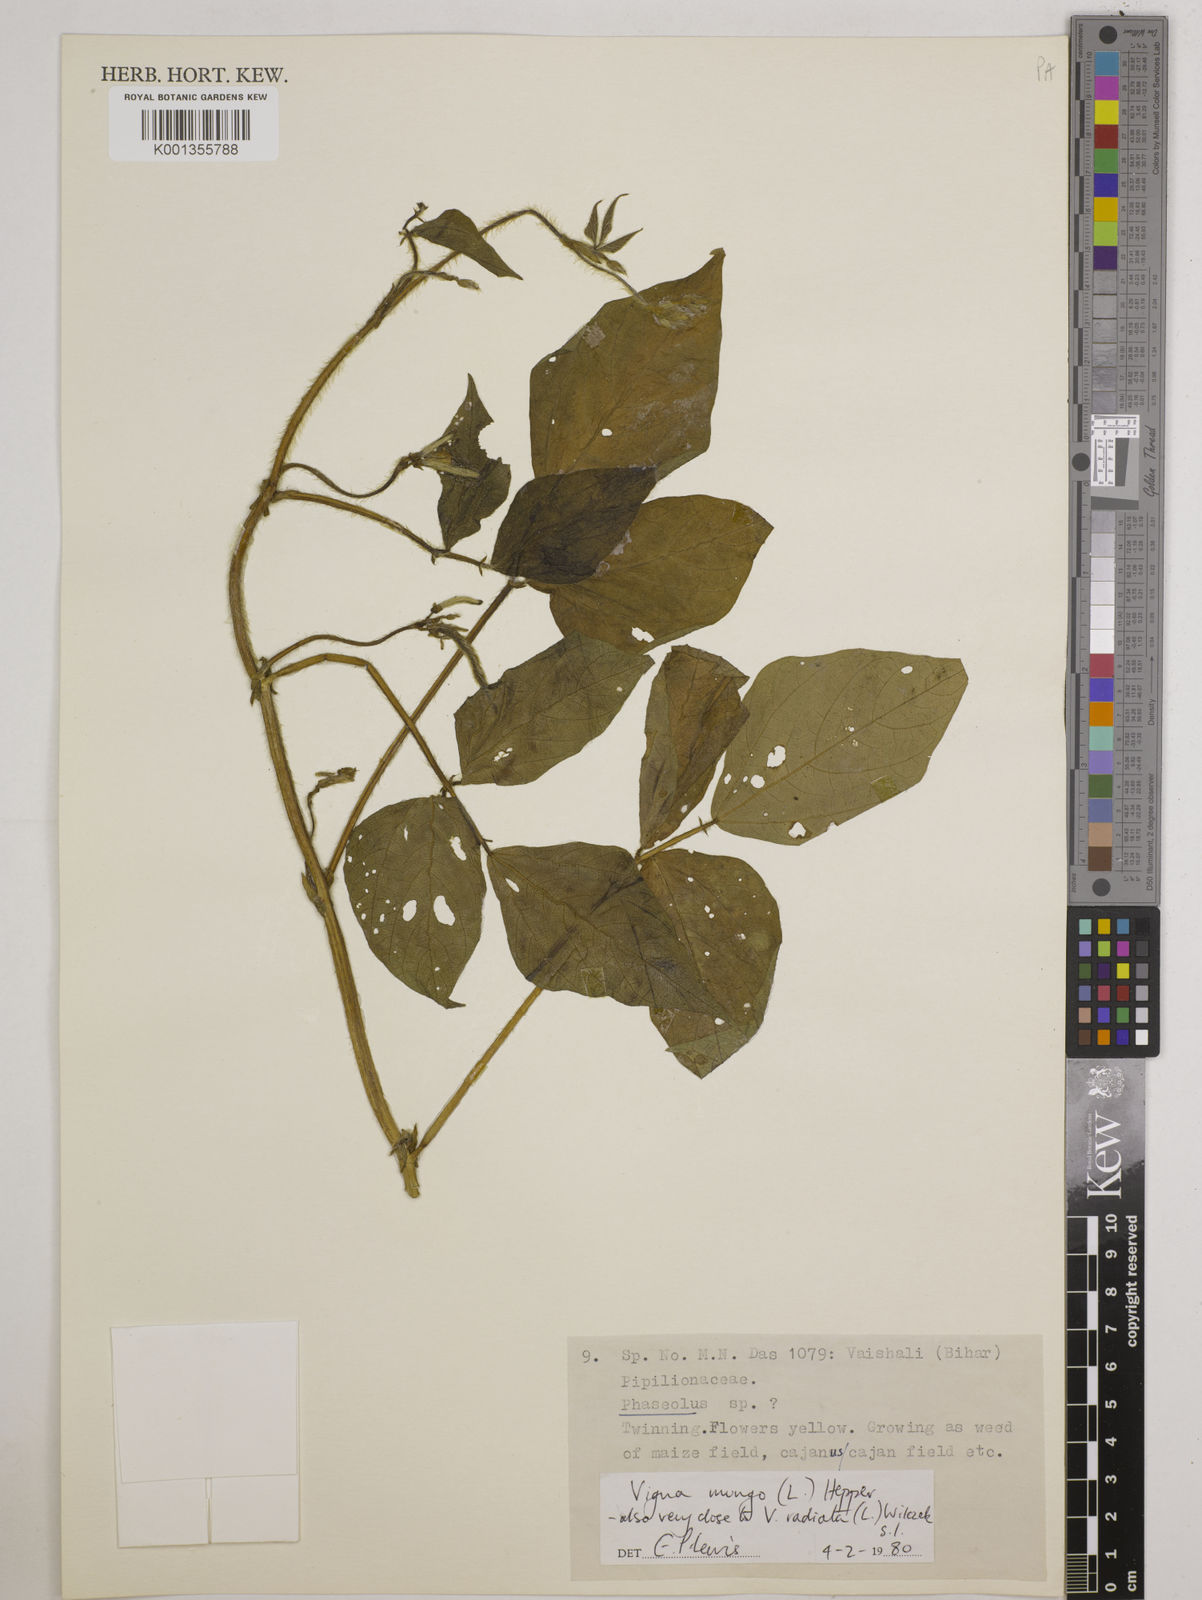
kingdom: Plantae
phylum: Tracheophyta
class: Magnoliopsida
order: Fabales
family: Fabaceae
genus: Vigna
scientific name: Vigna mungo
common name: Black gram
